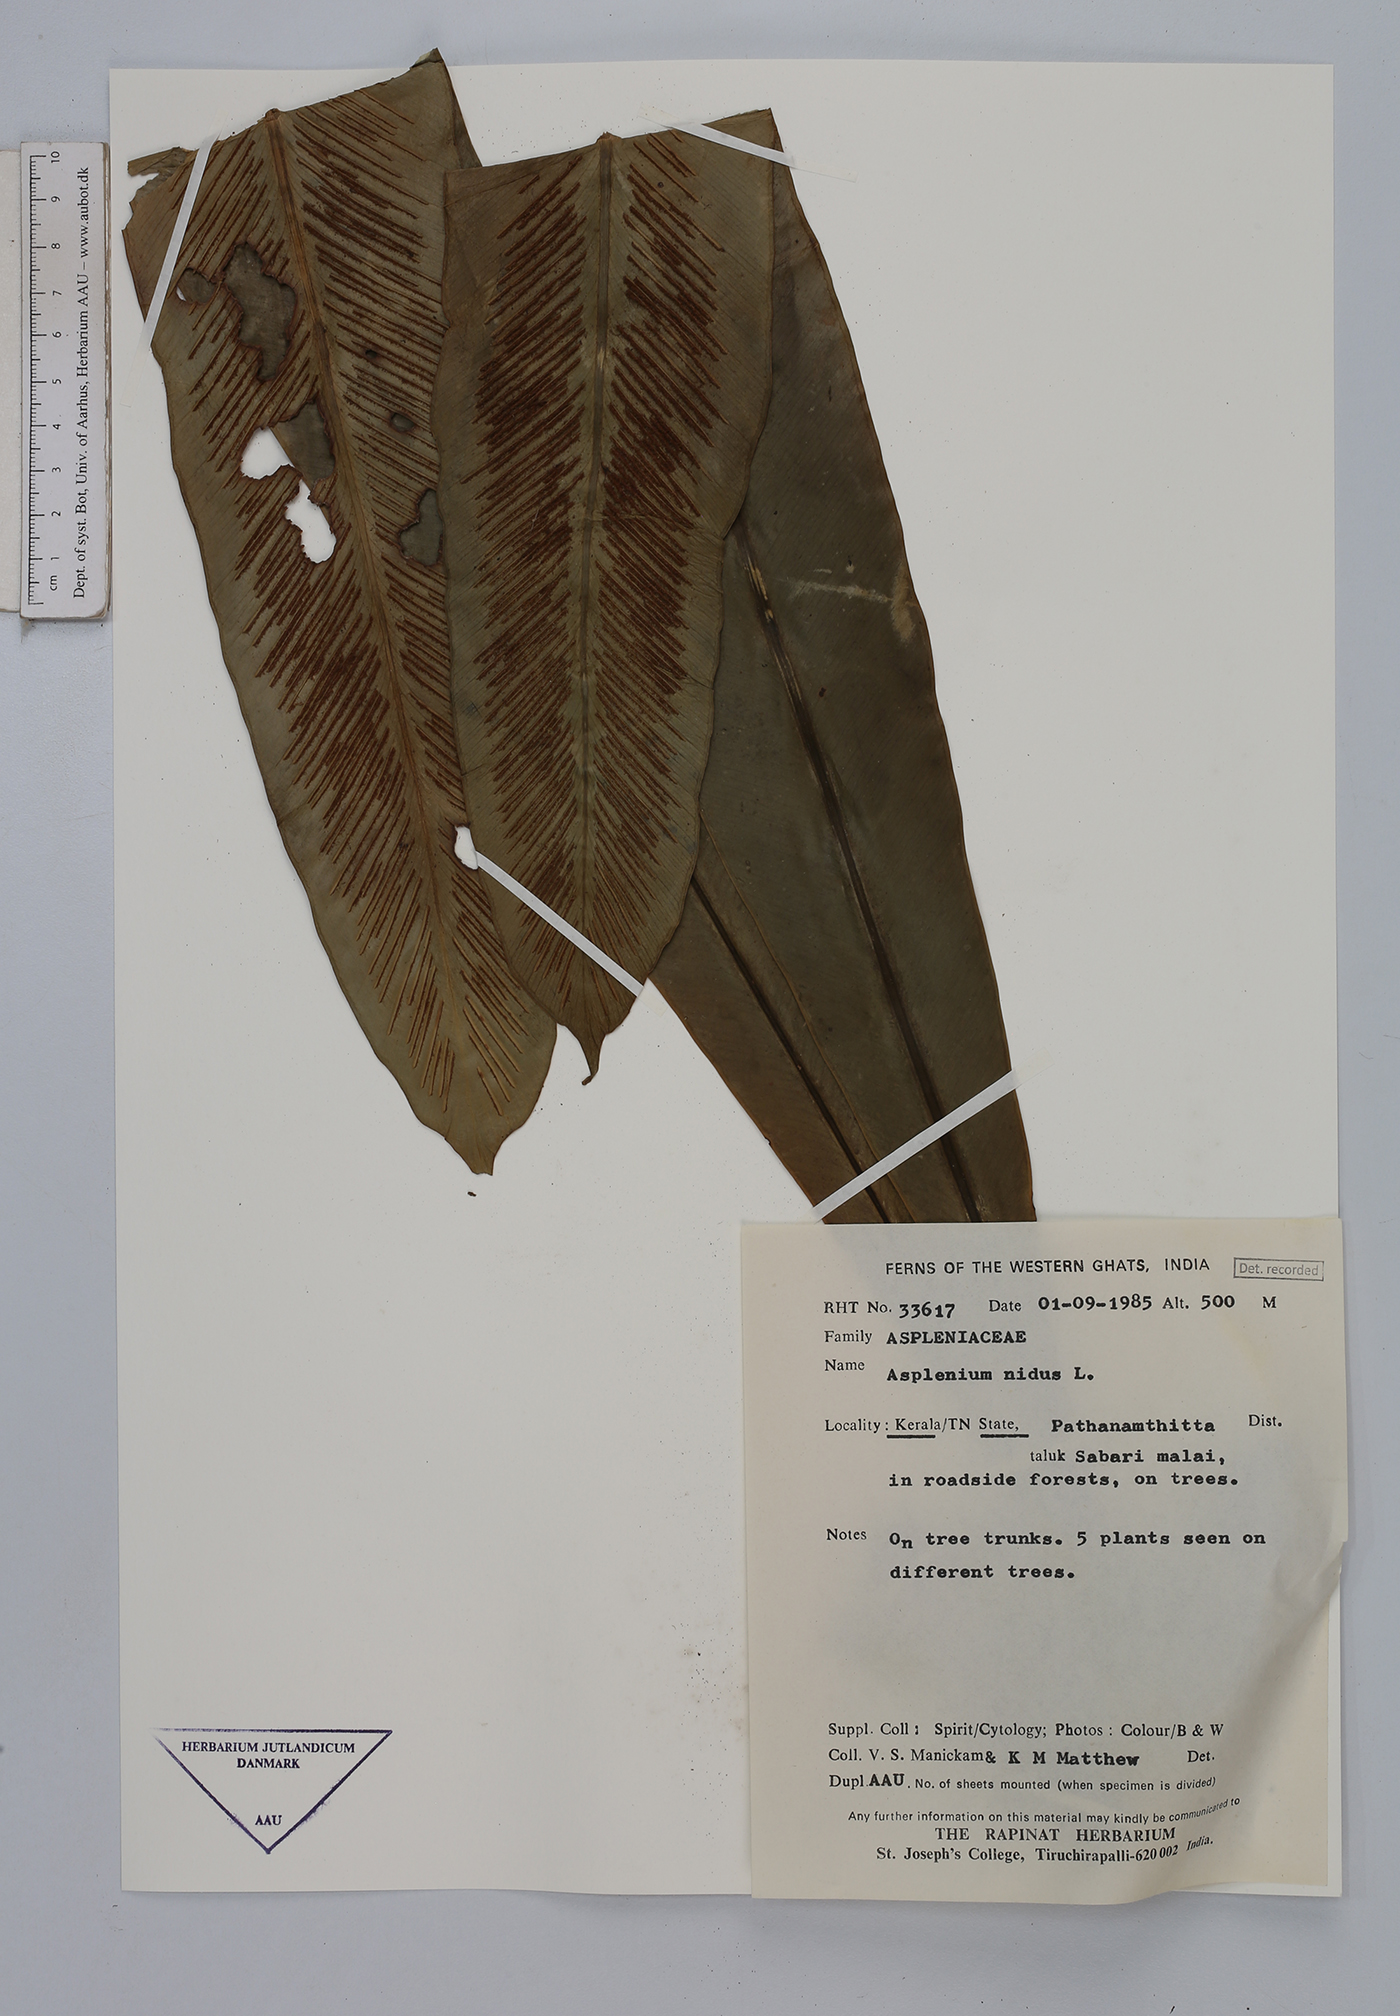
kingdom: Plantae
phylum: Tracheophyta
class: Polypodiopsida
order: Polypodiales
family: Aspleniaceae
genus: Asplenium
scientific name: Asplenium nidus
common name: Bird's-nest fern
